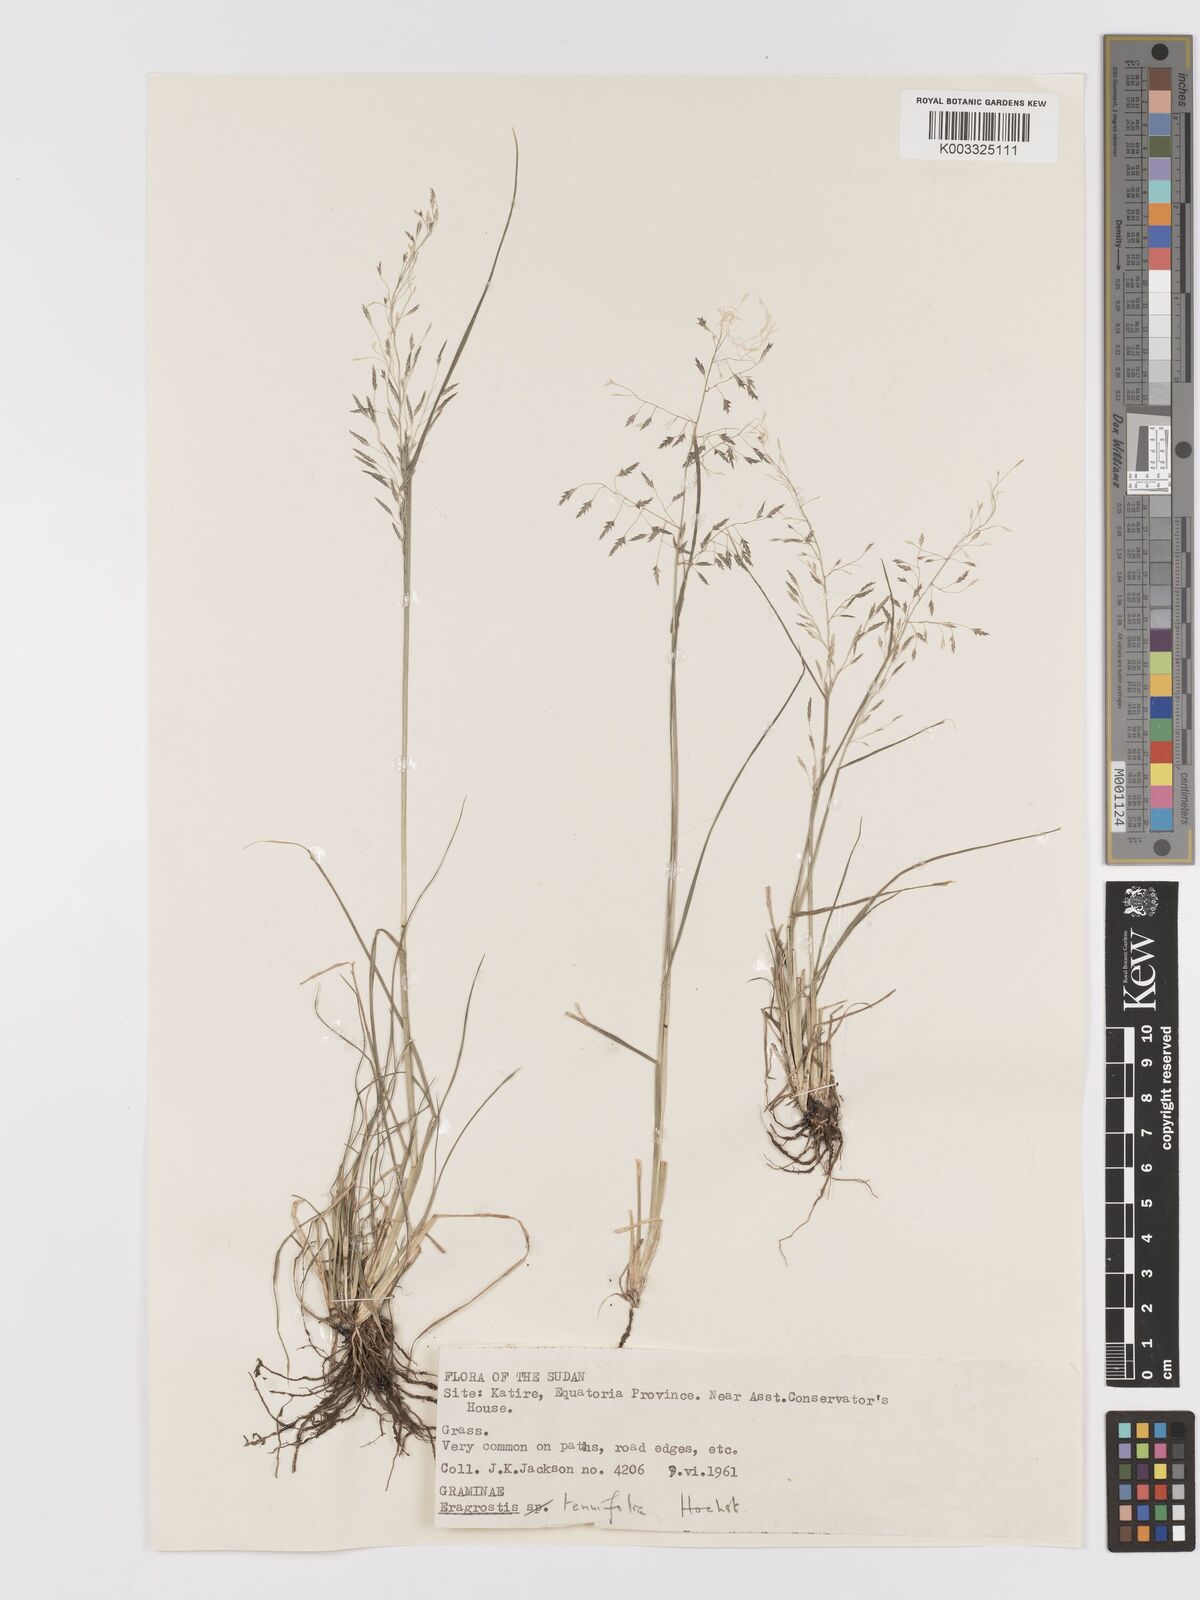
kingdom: Plantae
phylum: Tracheophyta
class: Liliopsida
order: Poales
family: Poaceae
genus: Eragrostis
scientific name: Eragrostis tenuifolia
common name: Elastic grass
